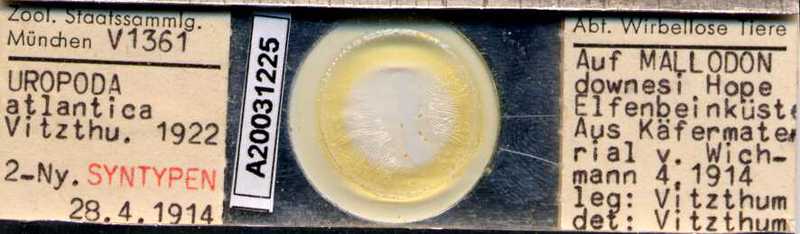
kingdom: Animalia
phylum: Arthropoda
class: Arachnida
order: Mesostigmata
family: Trematuridae
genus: Trichouropoda
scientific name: Trichouropoda
